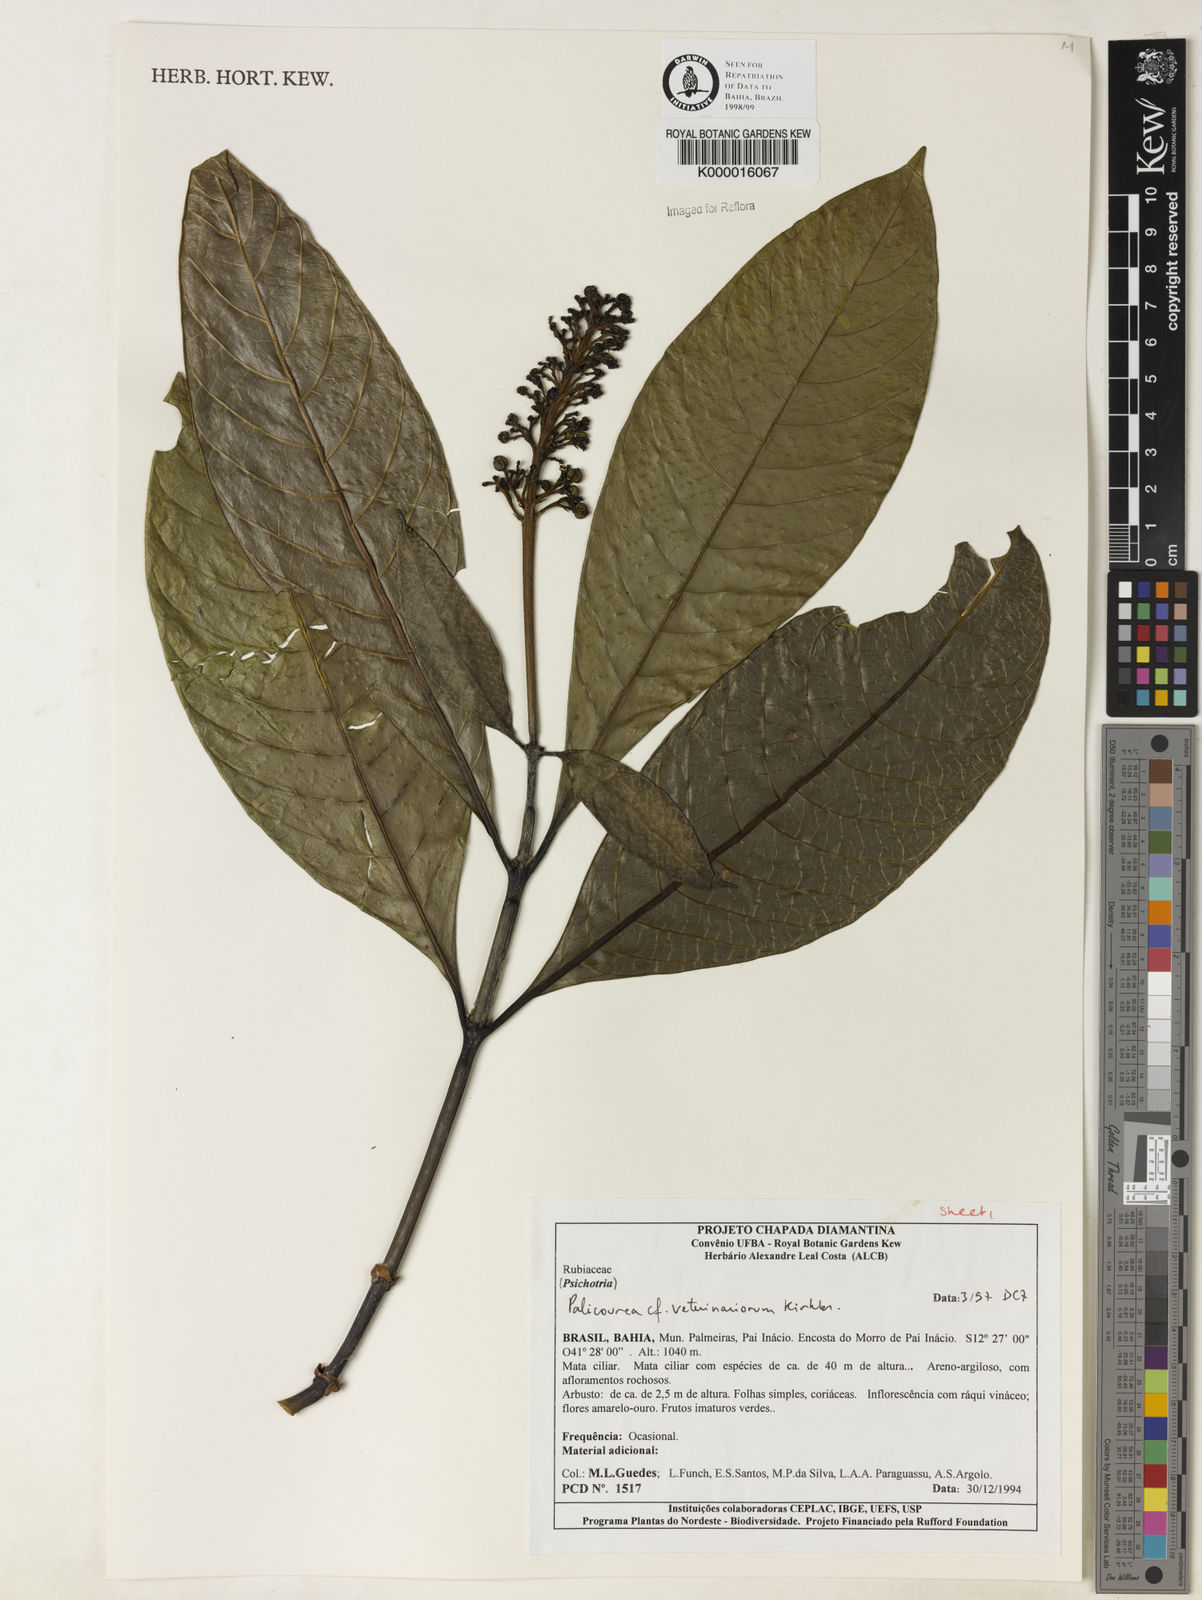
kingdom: Plantae
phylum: Tracheophyta
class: Magnoliopsida
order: Gentianales
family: Rubiaceae
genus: Palicourea
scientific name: Palicourea veterinariorum
